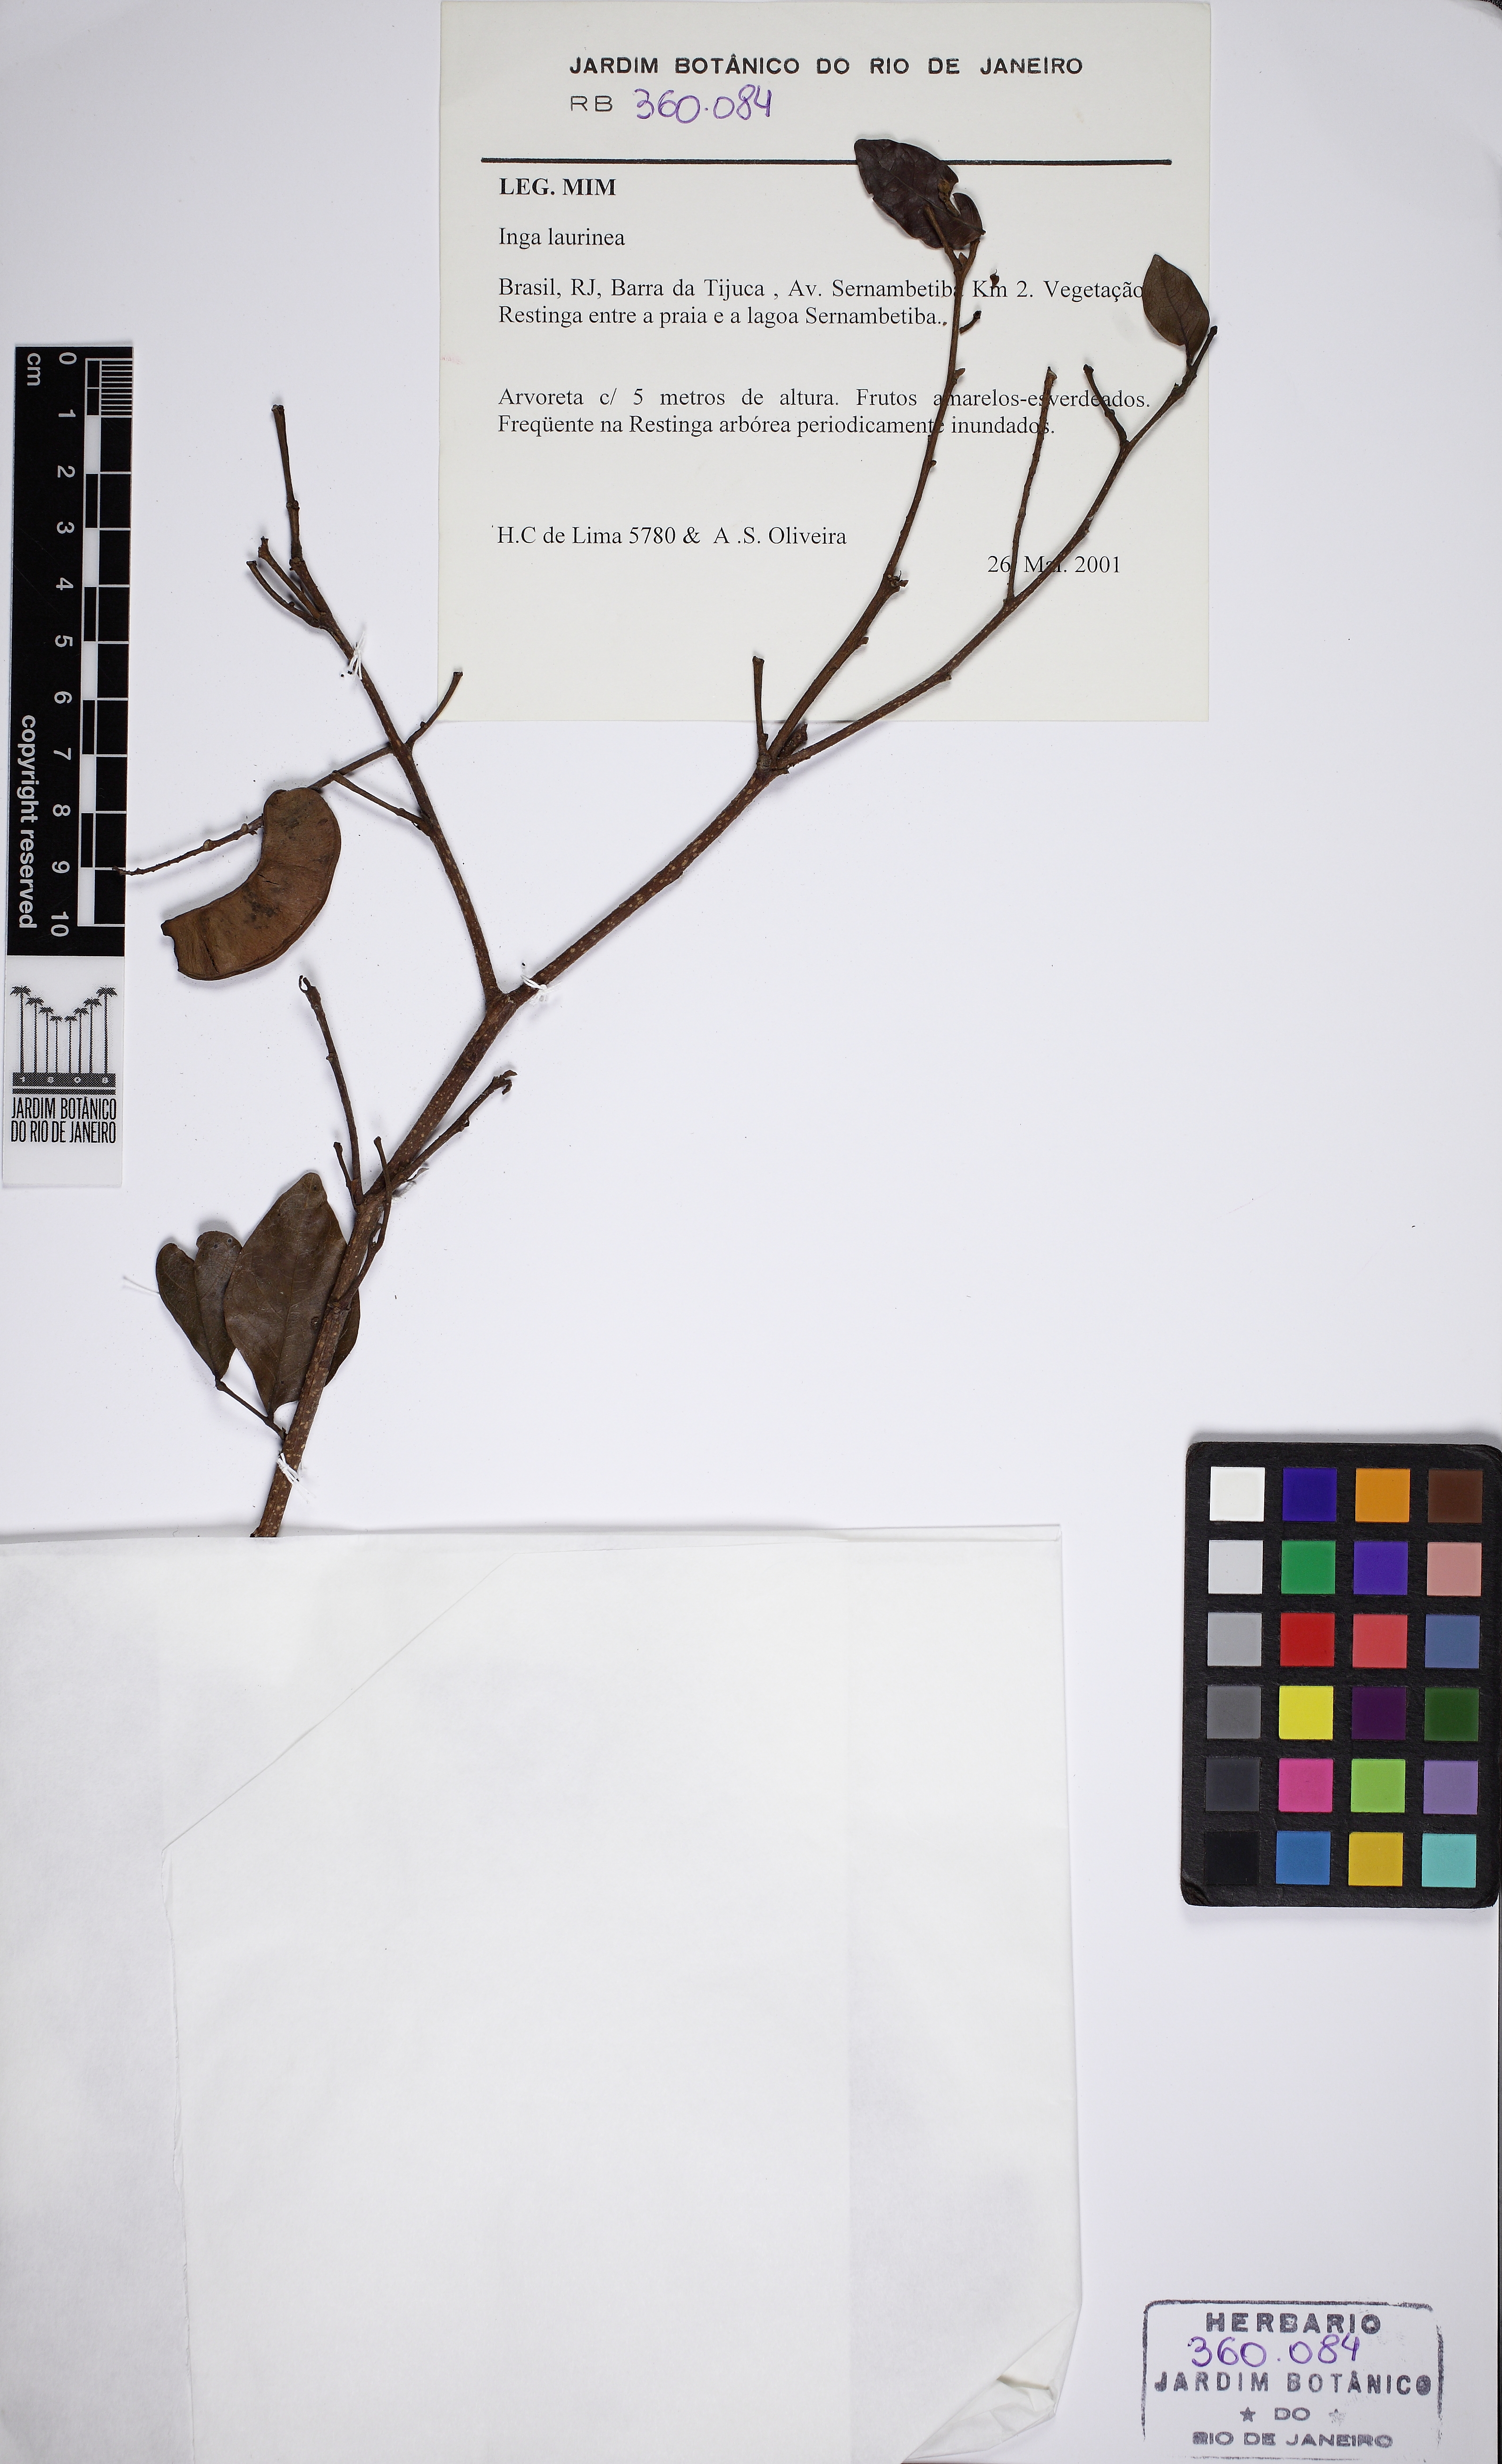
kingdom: Plantae
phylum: Tracheophyta
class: Magnoliopsida
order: Fabales
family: Fabaceae
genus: Inga
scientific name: Inga laurina
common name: Red wood
